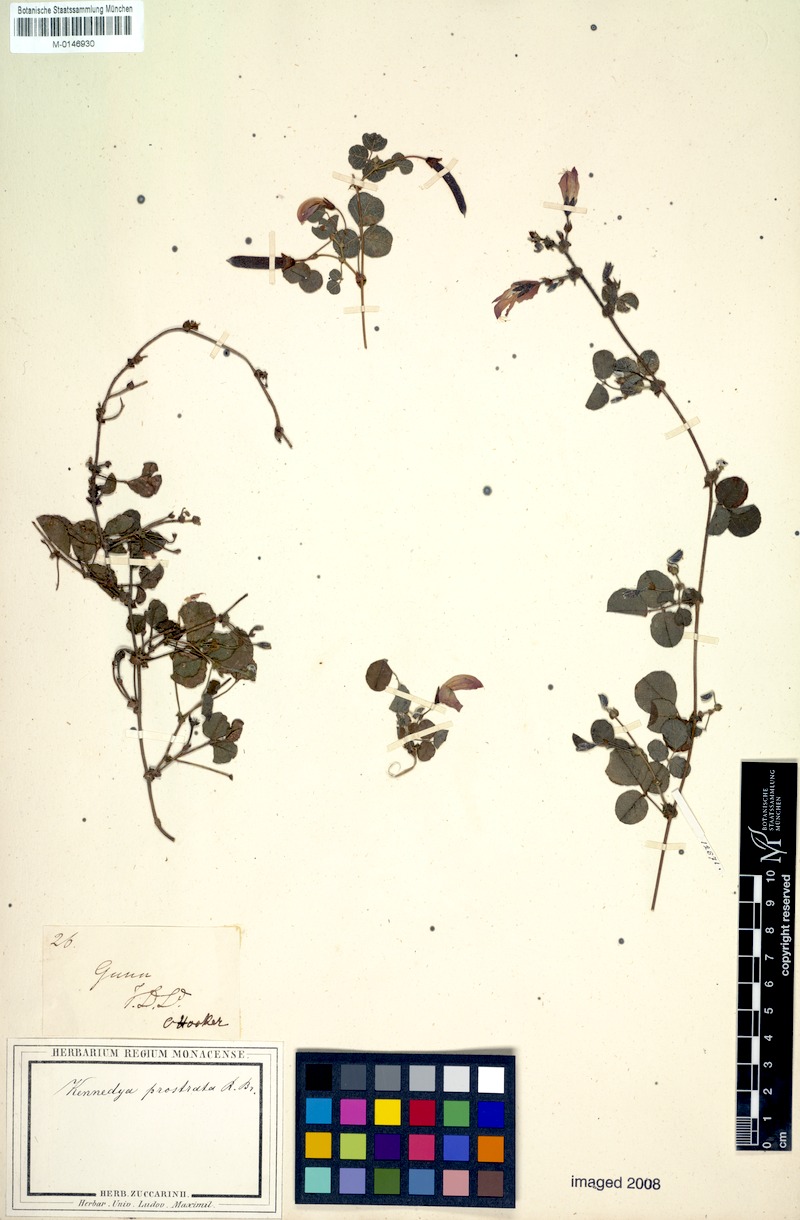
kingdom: Plantae
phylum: Tracheophyta
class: Magnoliopsida
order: Fabales
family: Fabaceae
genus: Kennedia
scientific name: Kennedia prostrata
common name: Running-postman
